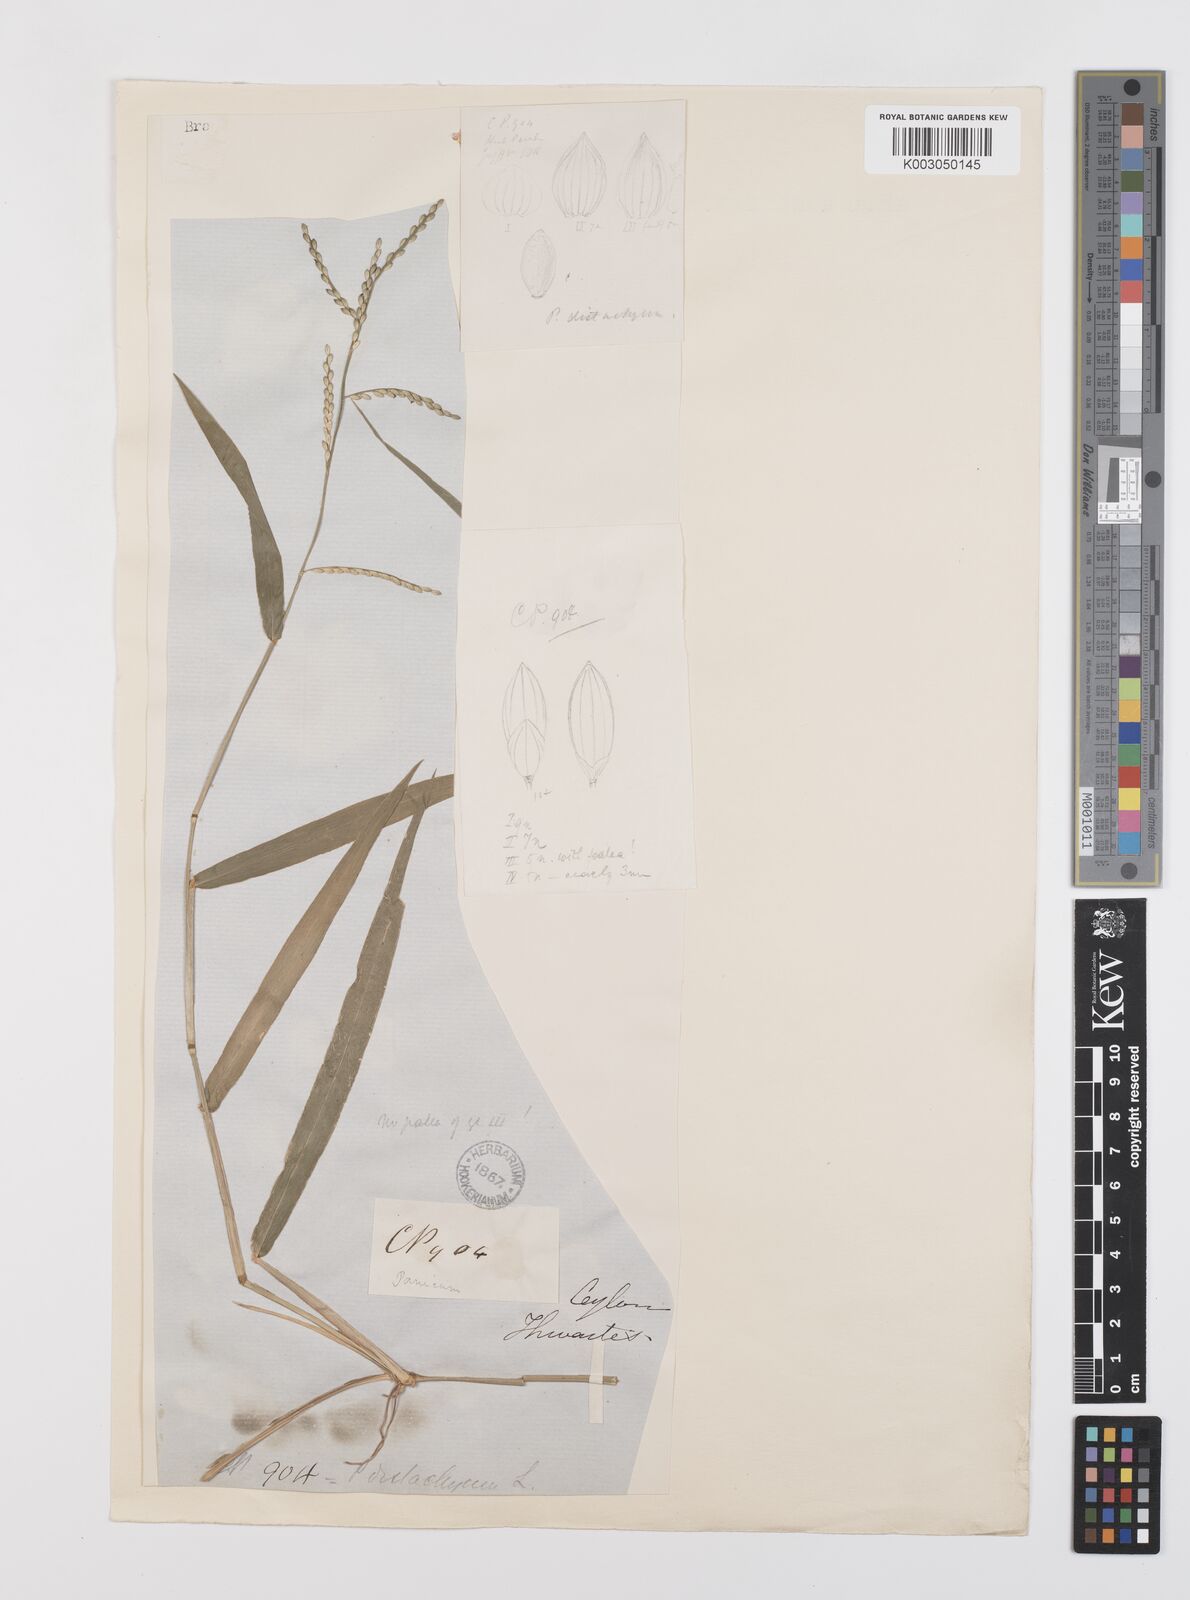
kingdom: Plantae
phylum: Tracheophyta
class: Liliopsida
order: Poales
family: Poaceae
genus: Urochloa
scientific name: Urochloa subquadripara
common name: Armgrass millet
